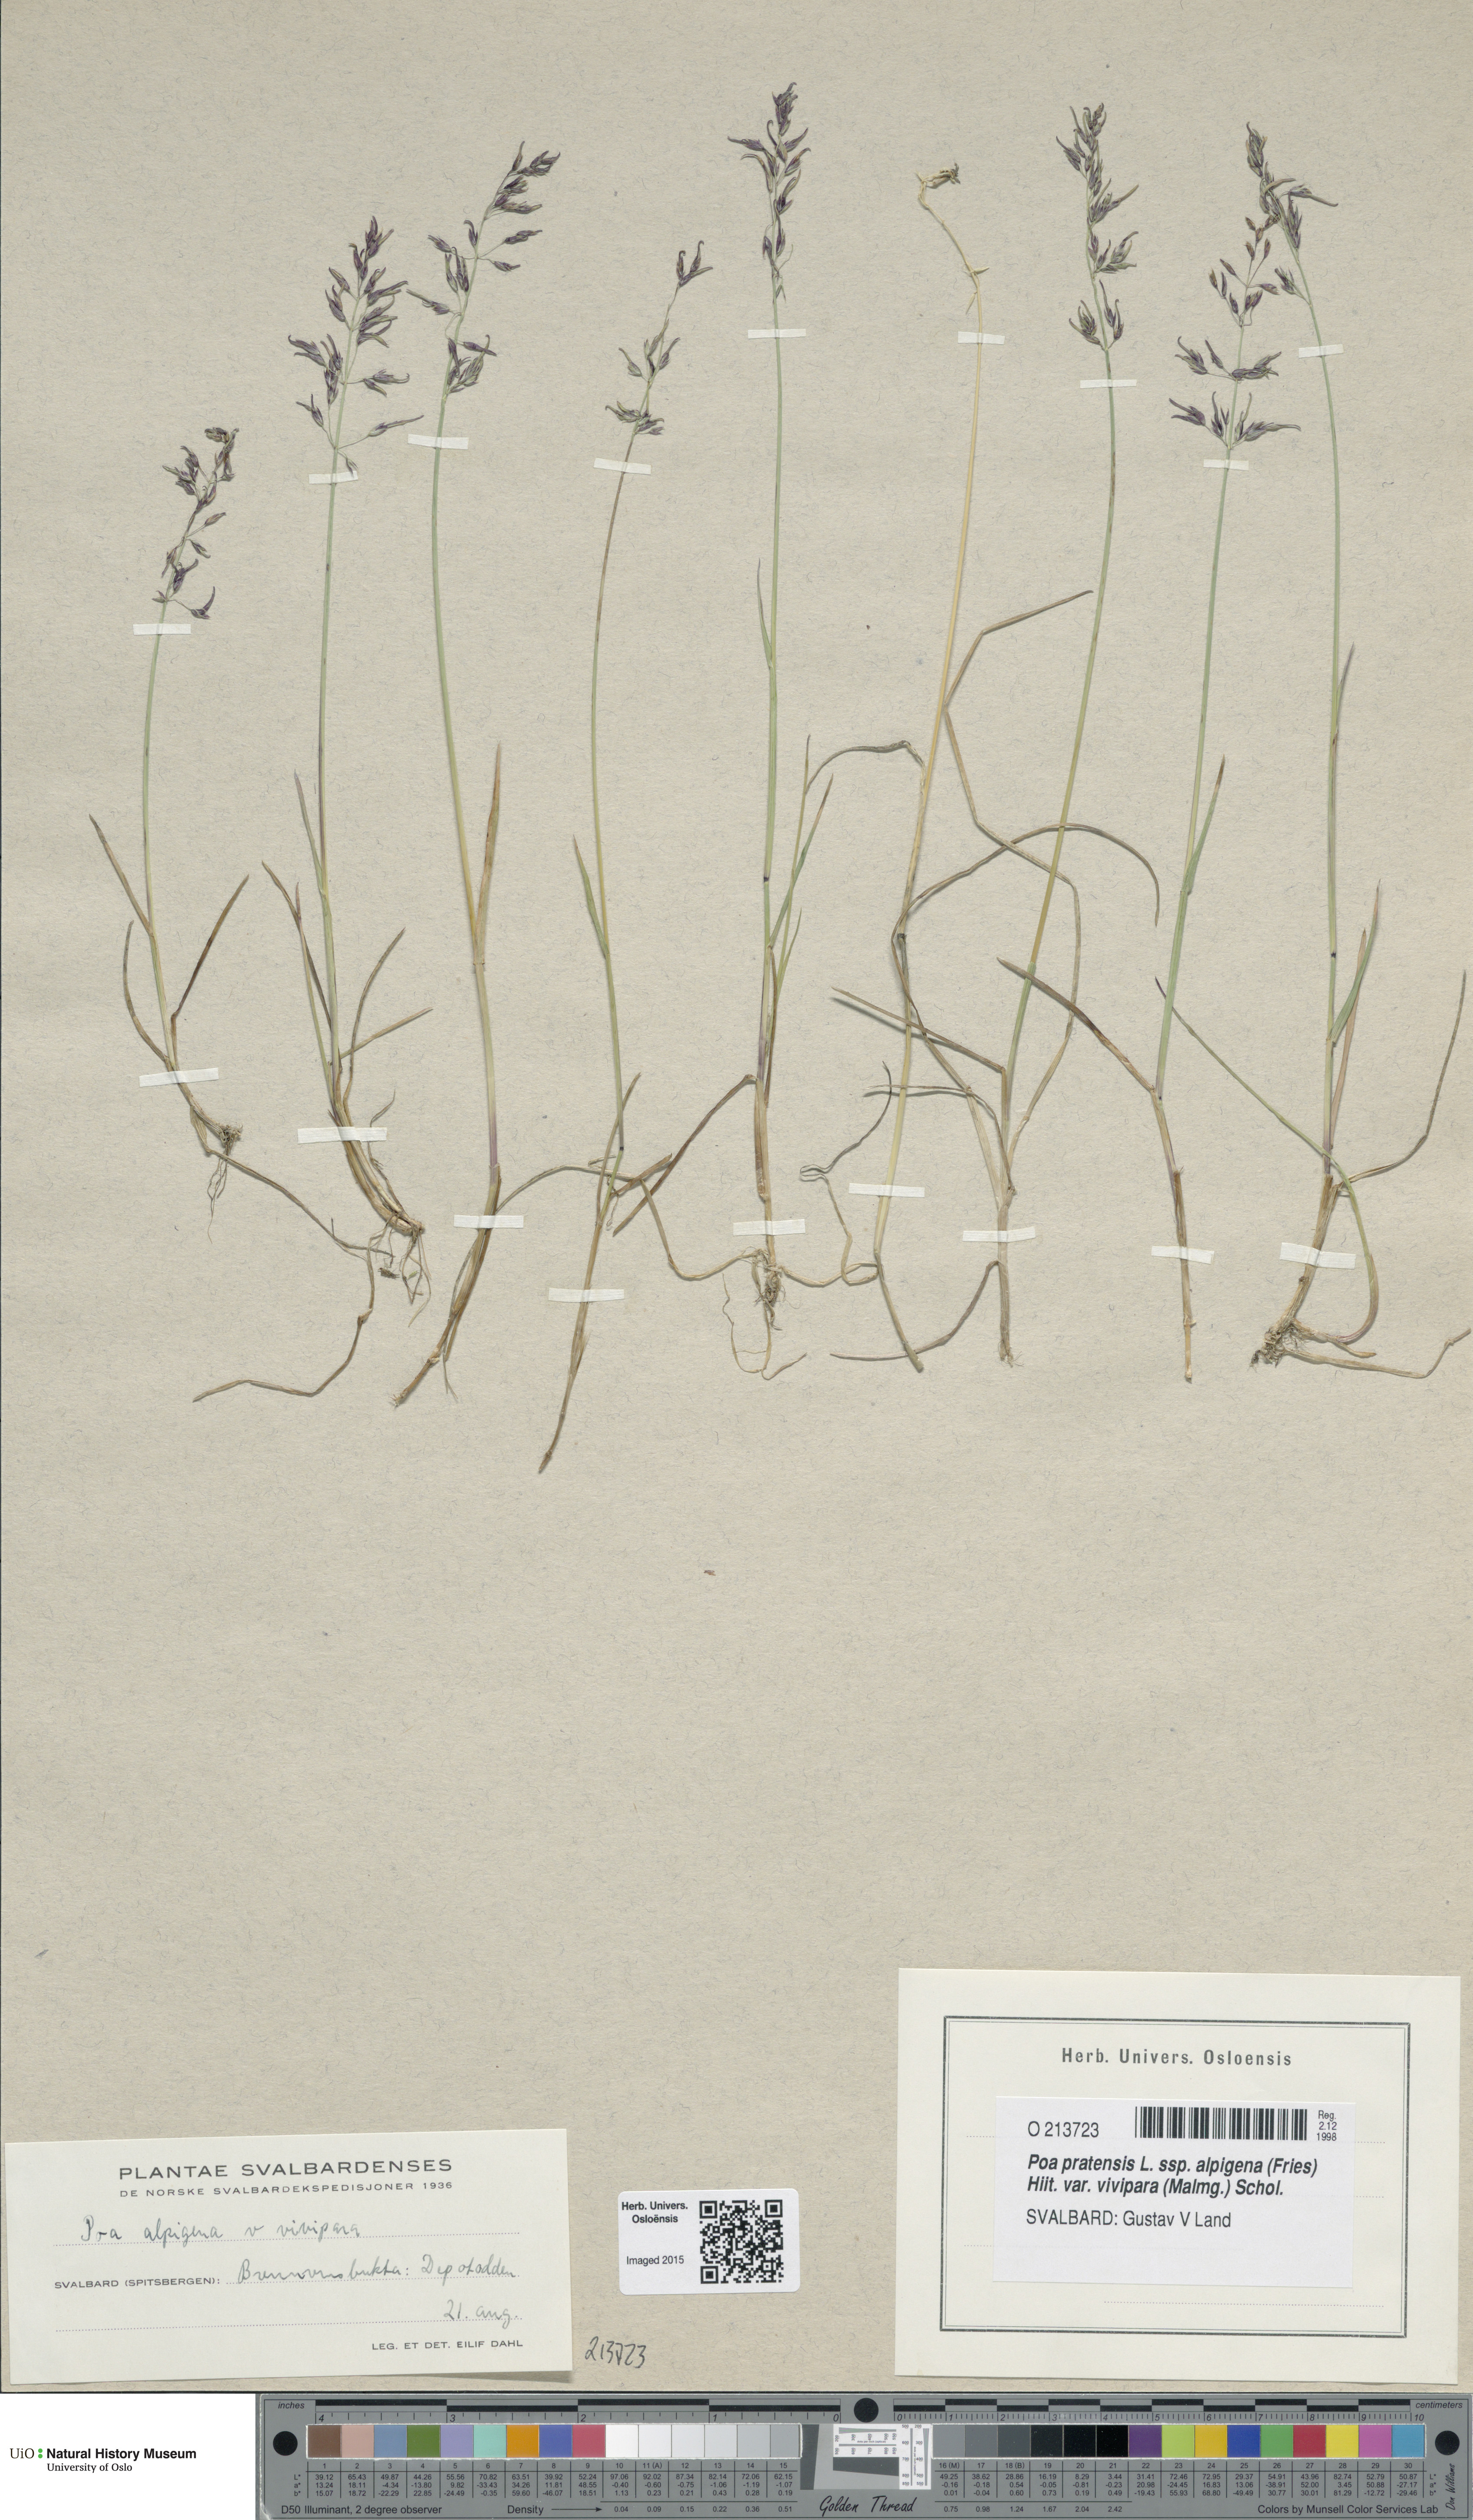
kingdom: Plantae
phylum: Tracheophyta
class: Liliopsida
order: Poales
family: Poaceae
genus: Poa
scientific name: Poa arctica
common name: Arctic bluegrass
